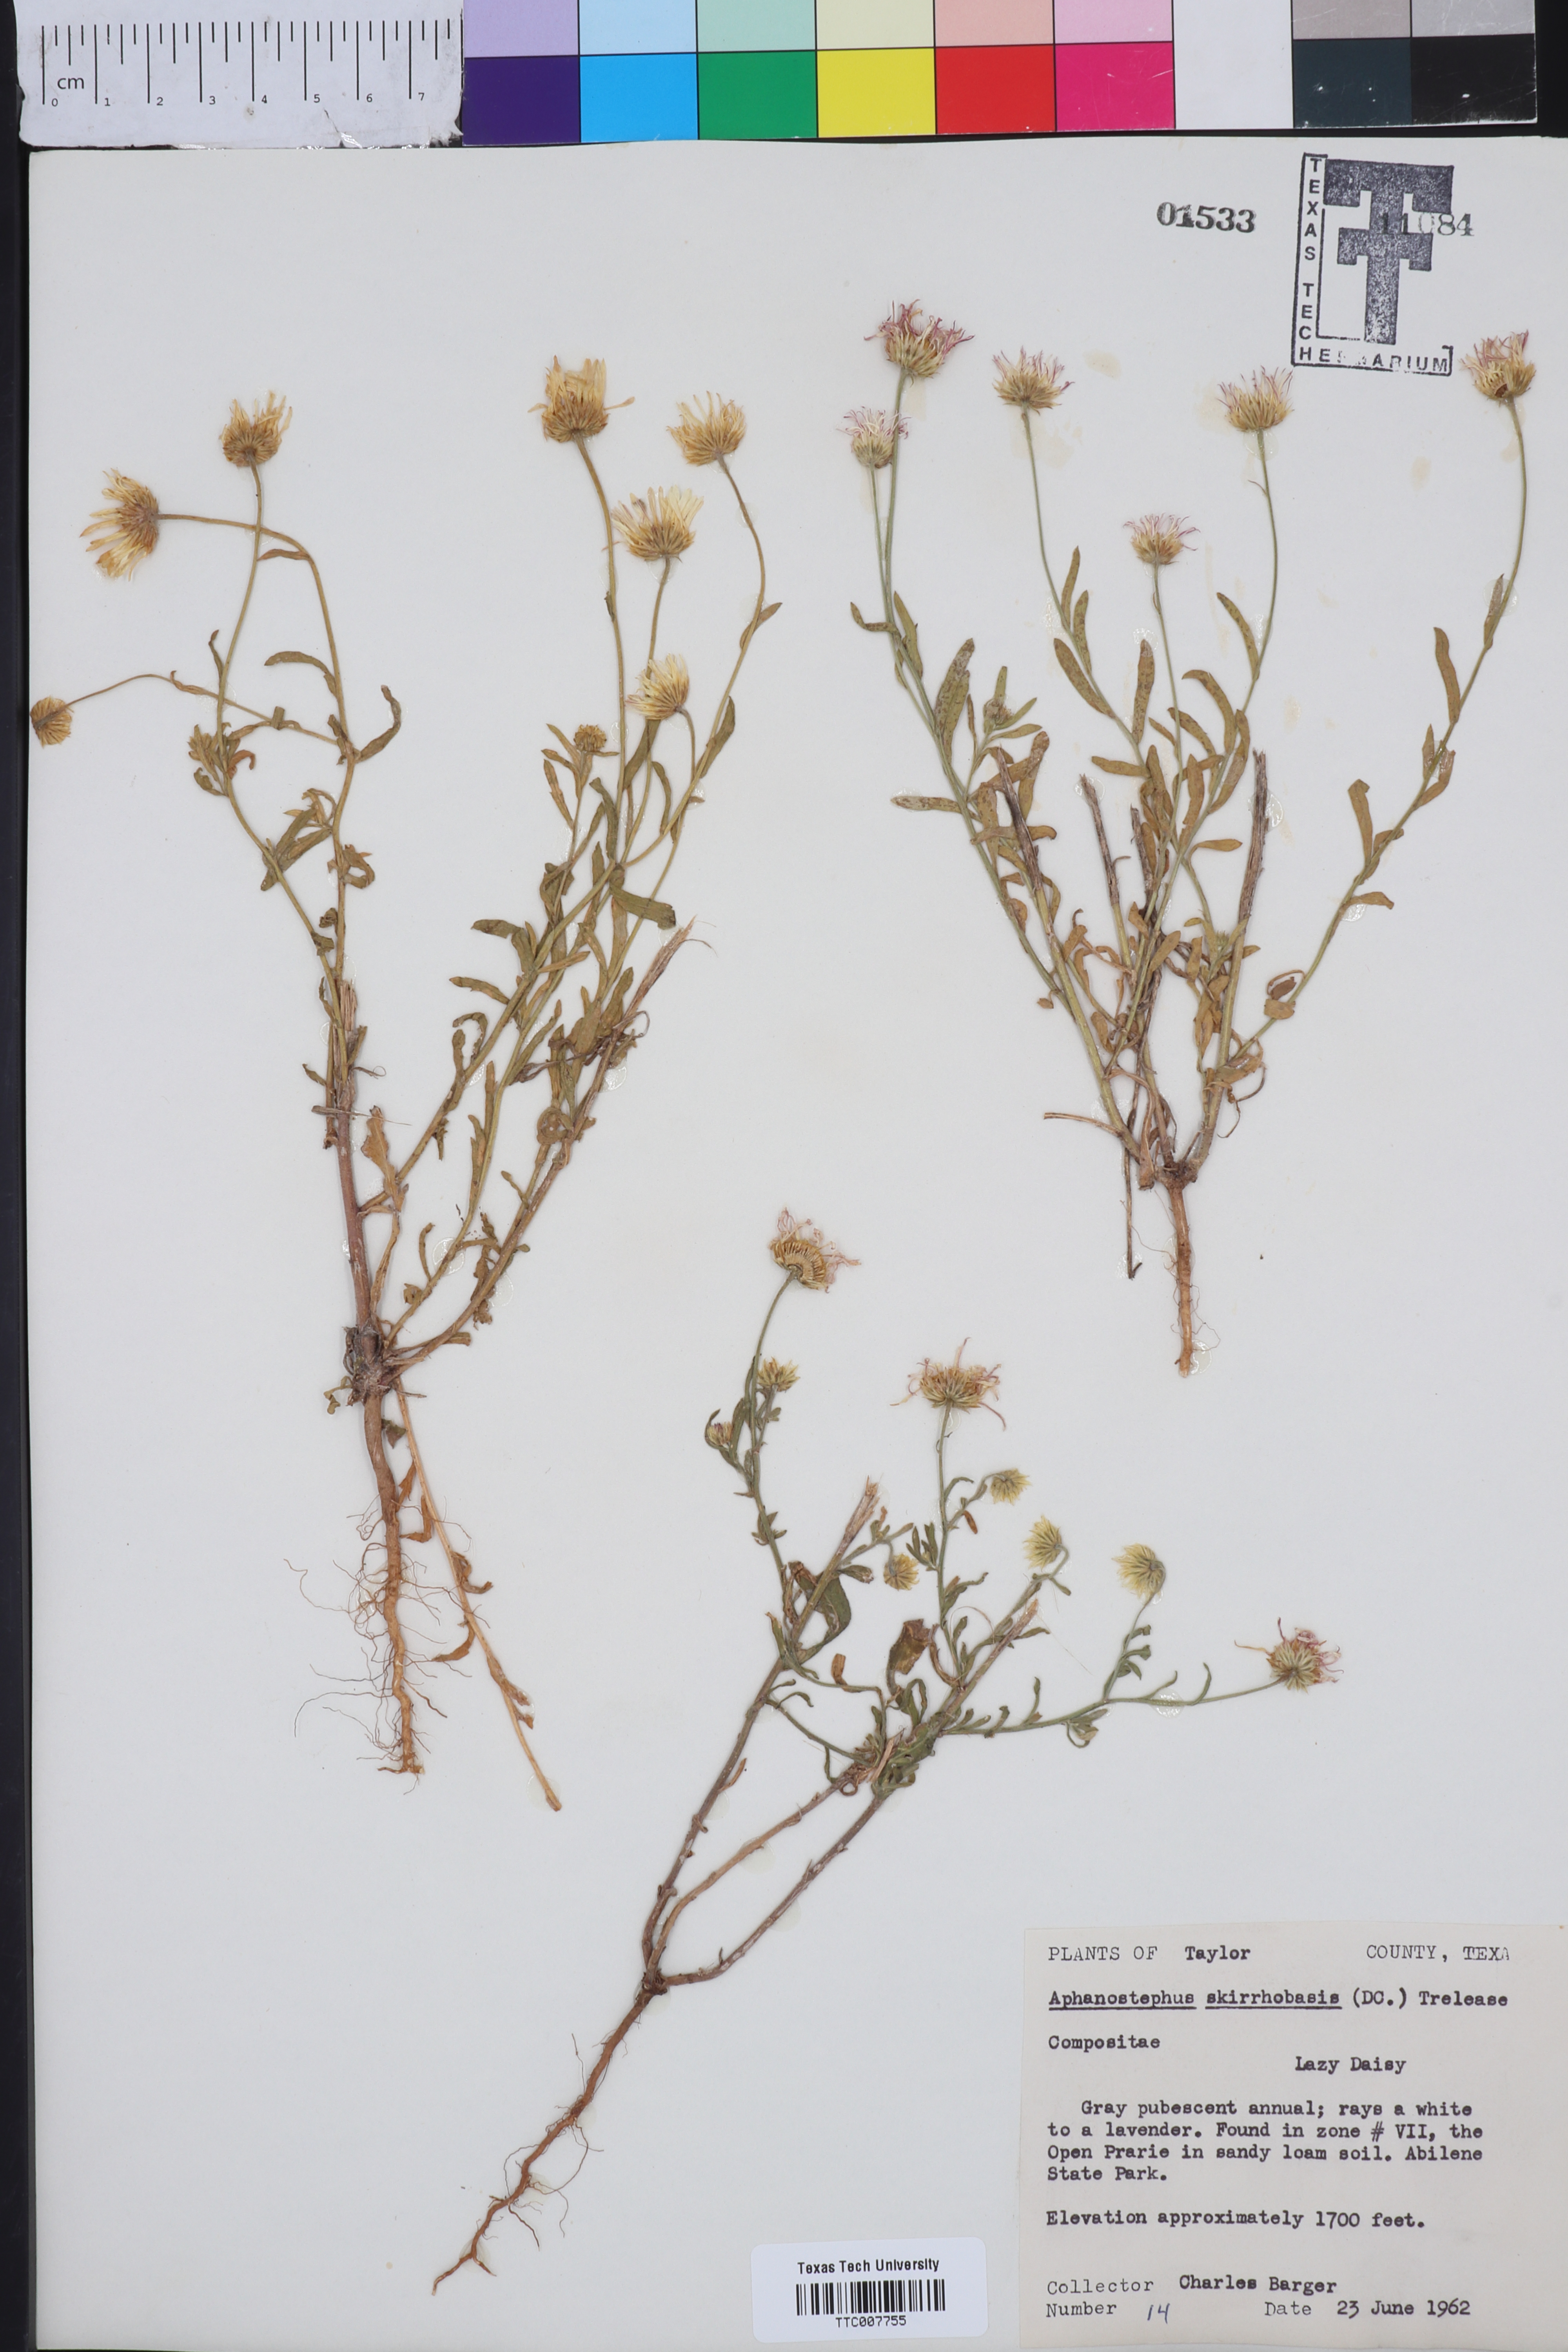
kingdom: Plantae
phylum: Tracheophyta
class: Magnoliopsida
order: Asterales
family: Asteraceae
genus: Aphanostephus
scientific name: Aphanostephus skirrhobasis
